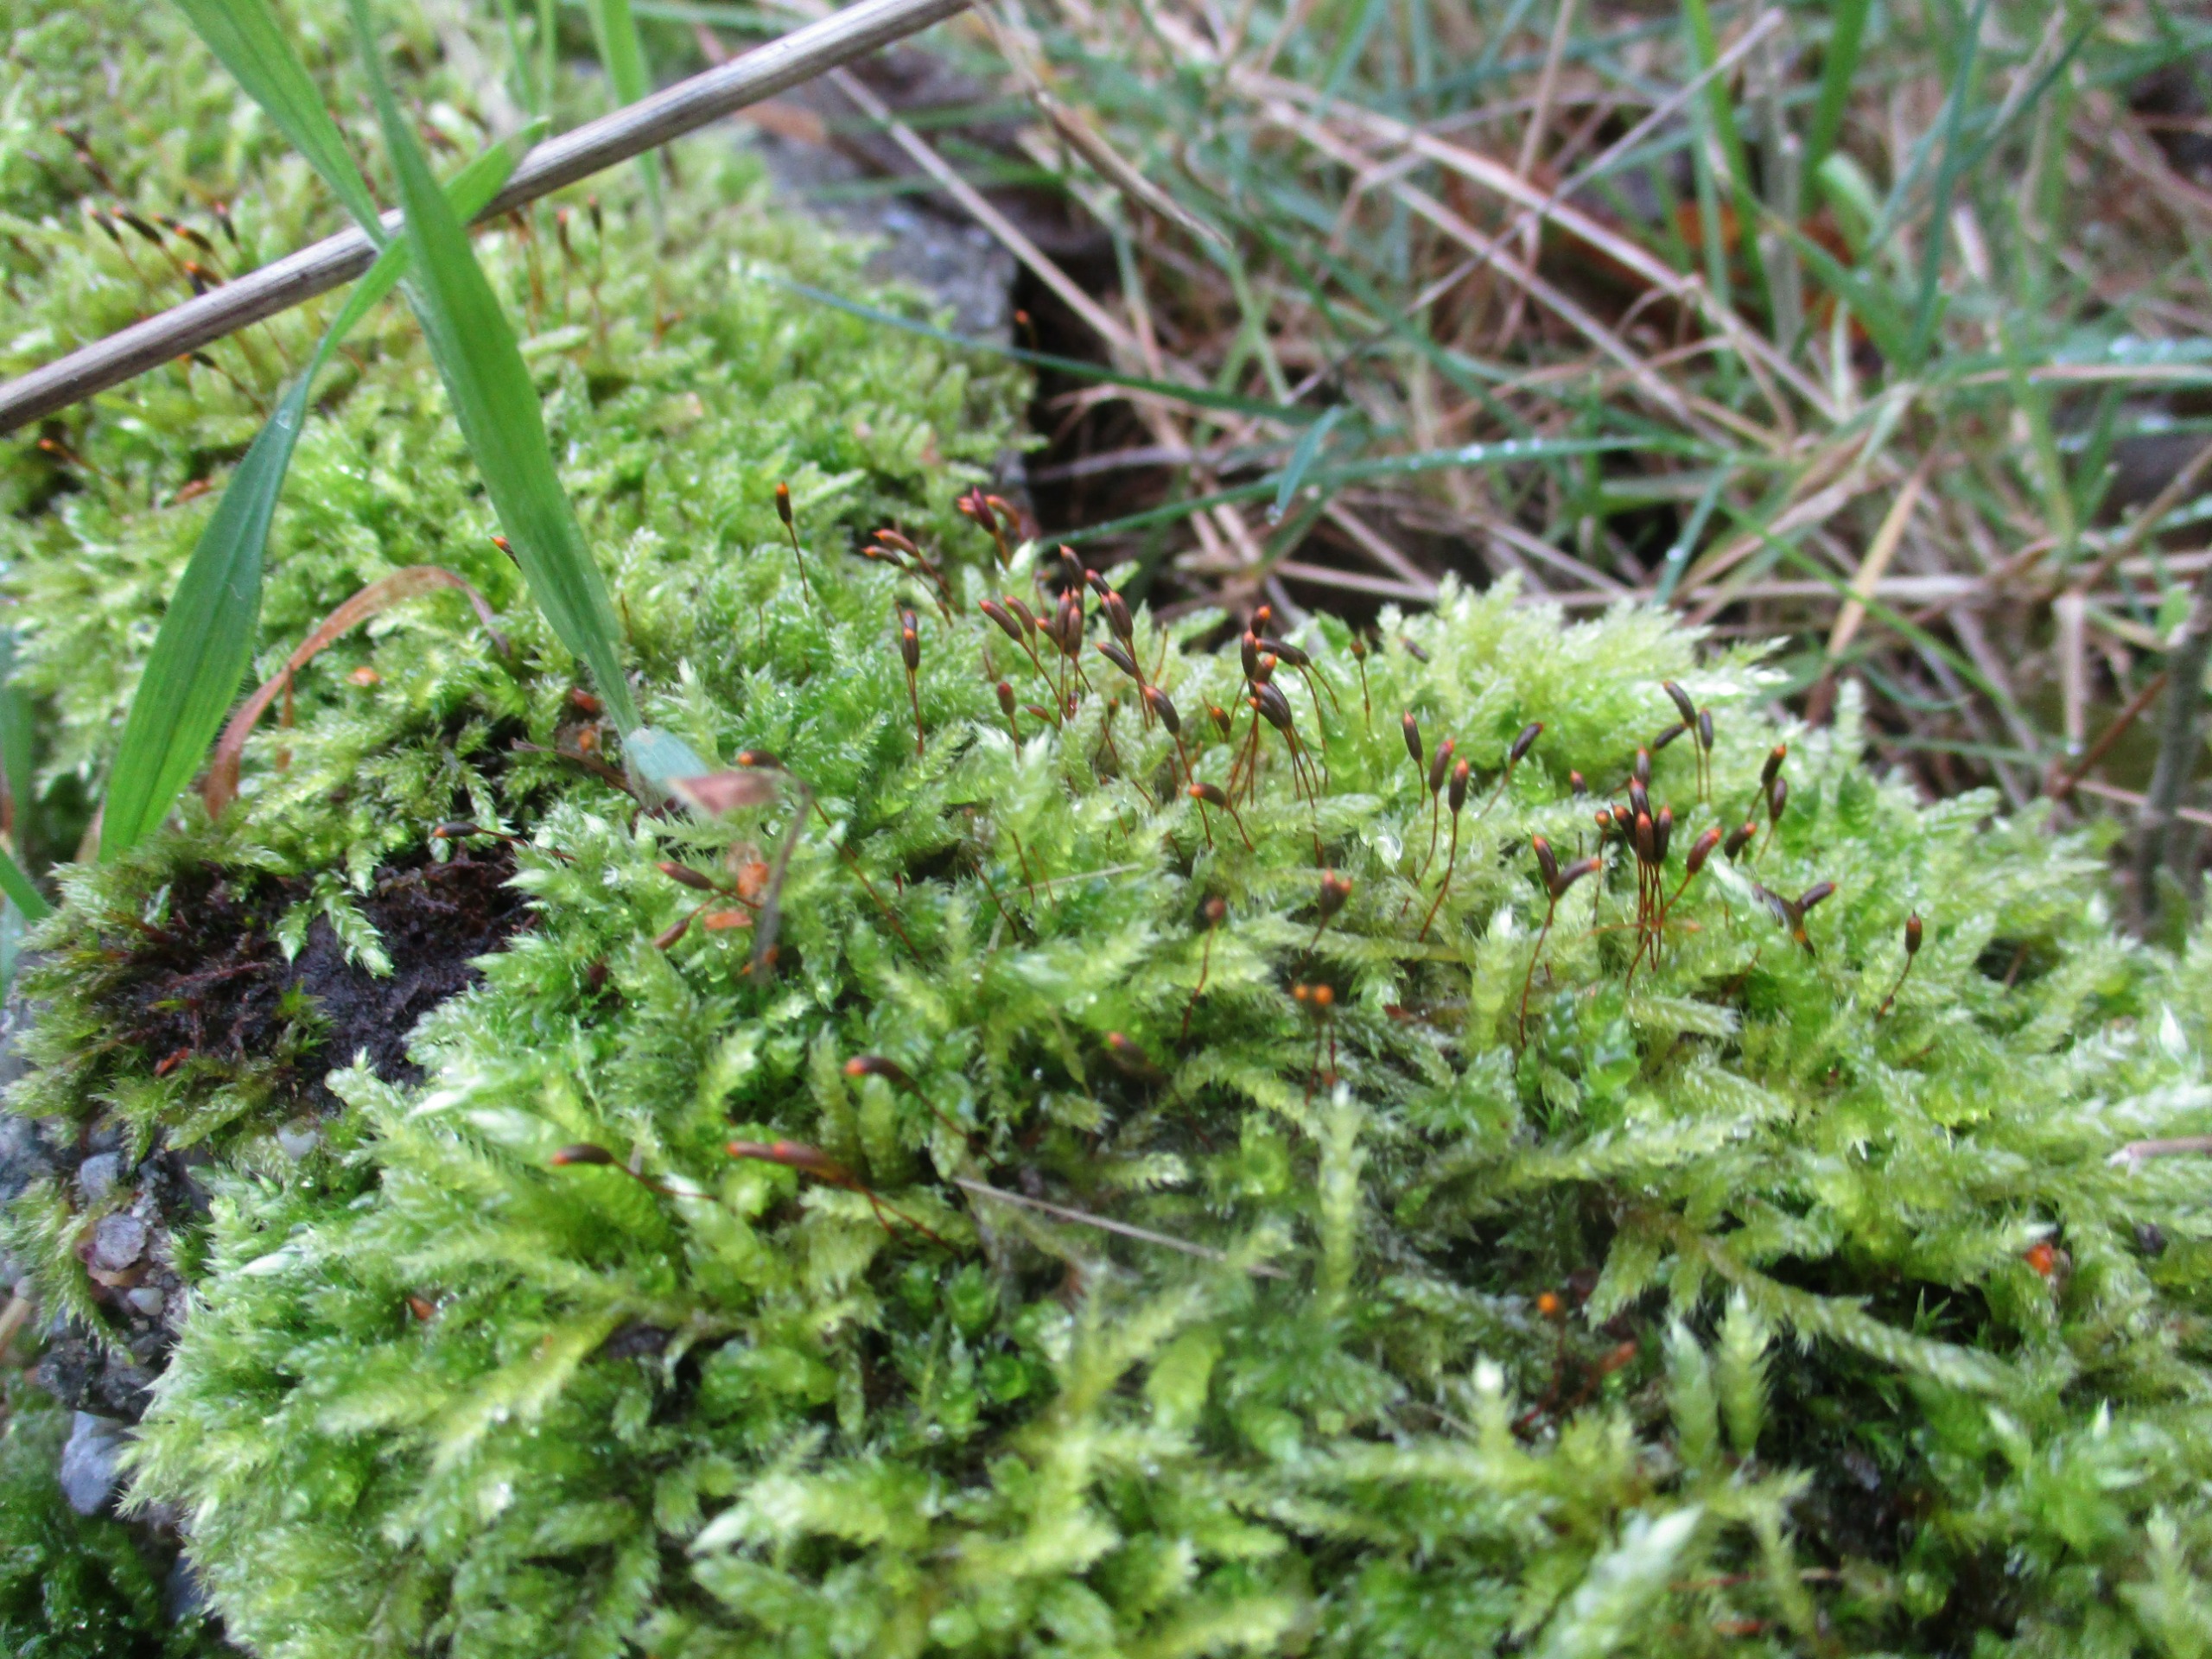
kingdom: Plantae
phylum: Bryophyta
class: Bryopsida
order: Hypnales
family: Hypnaceae
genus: Hypnum
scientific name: Hypnum cupressiforme
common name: Almindelig cypresmos
